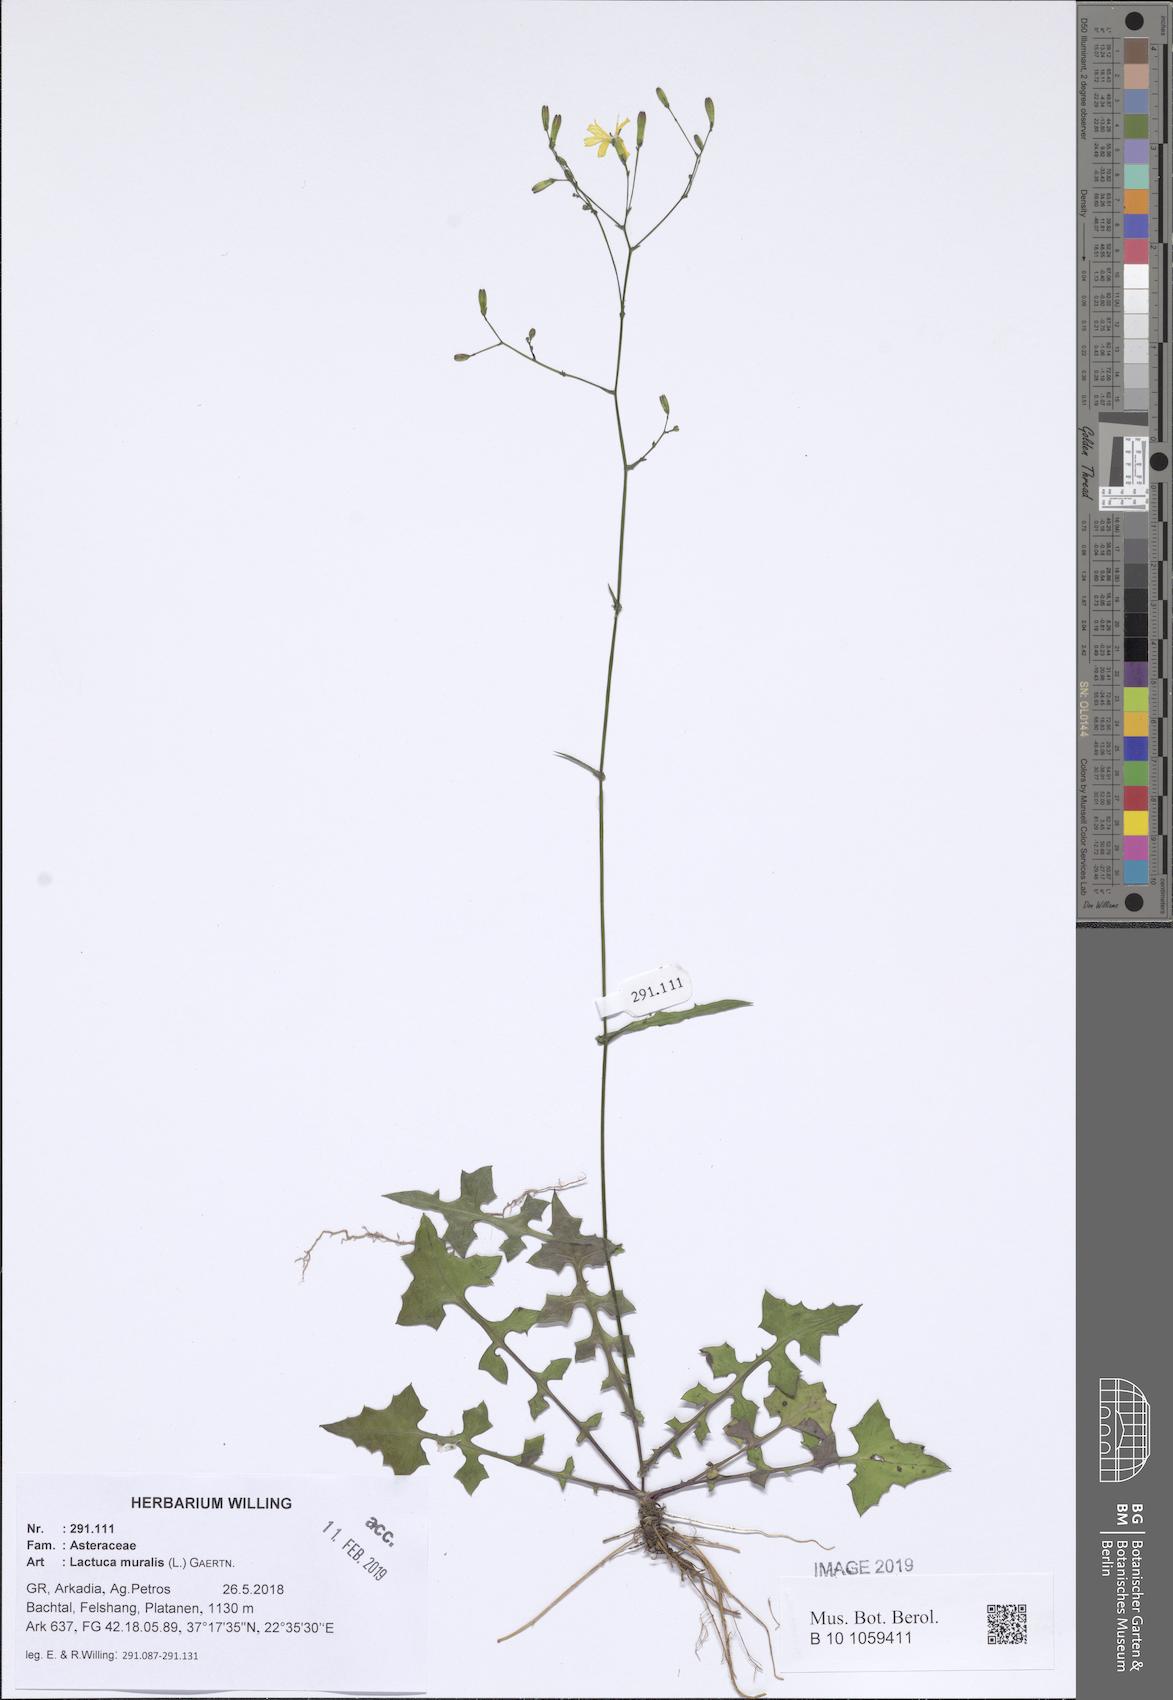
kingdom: Plantae
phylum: Tracheophyta
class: Magnoliopsida
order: Asterales
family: Asteraceae
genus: Mycelis
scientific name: Mycelis muralis
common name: Wall lettuce
